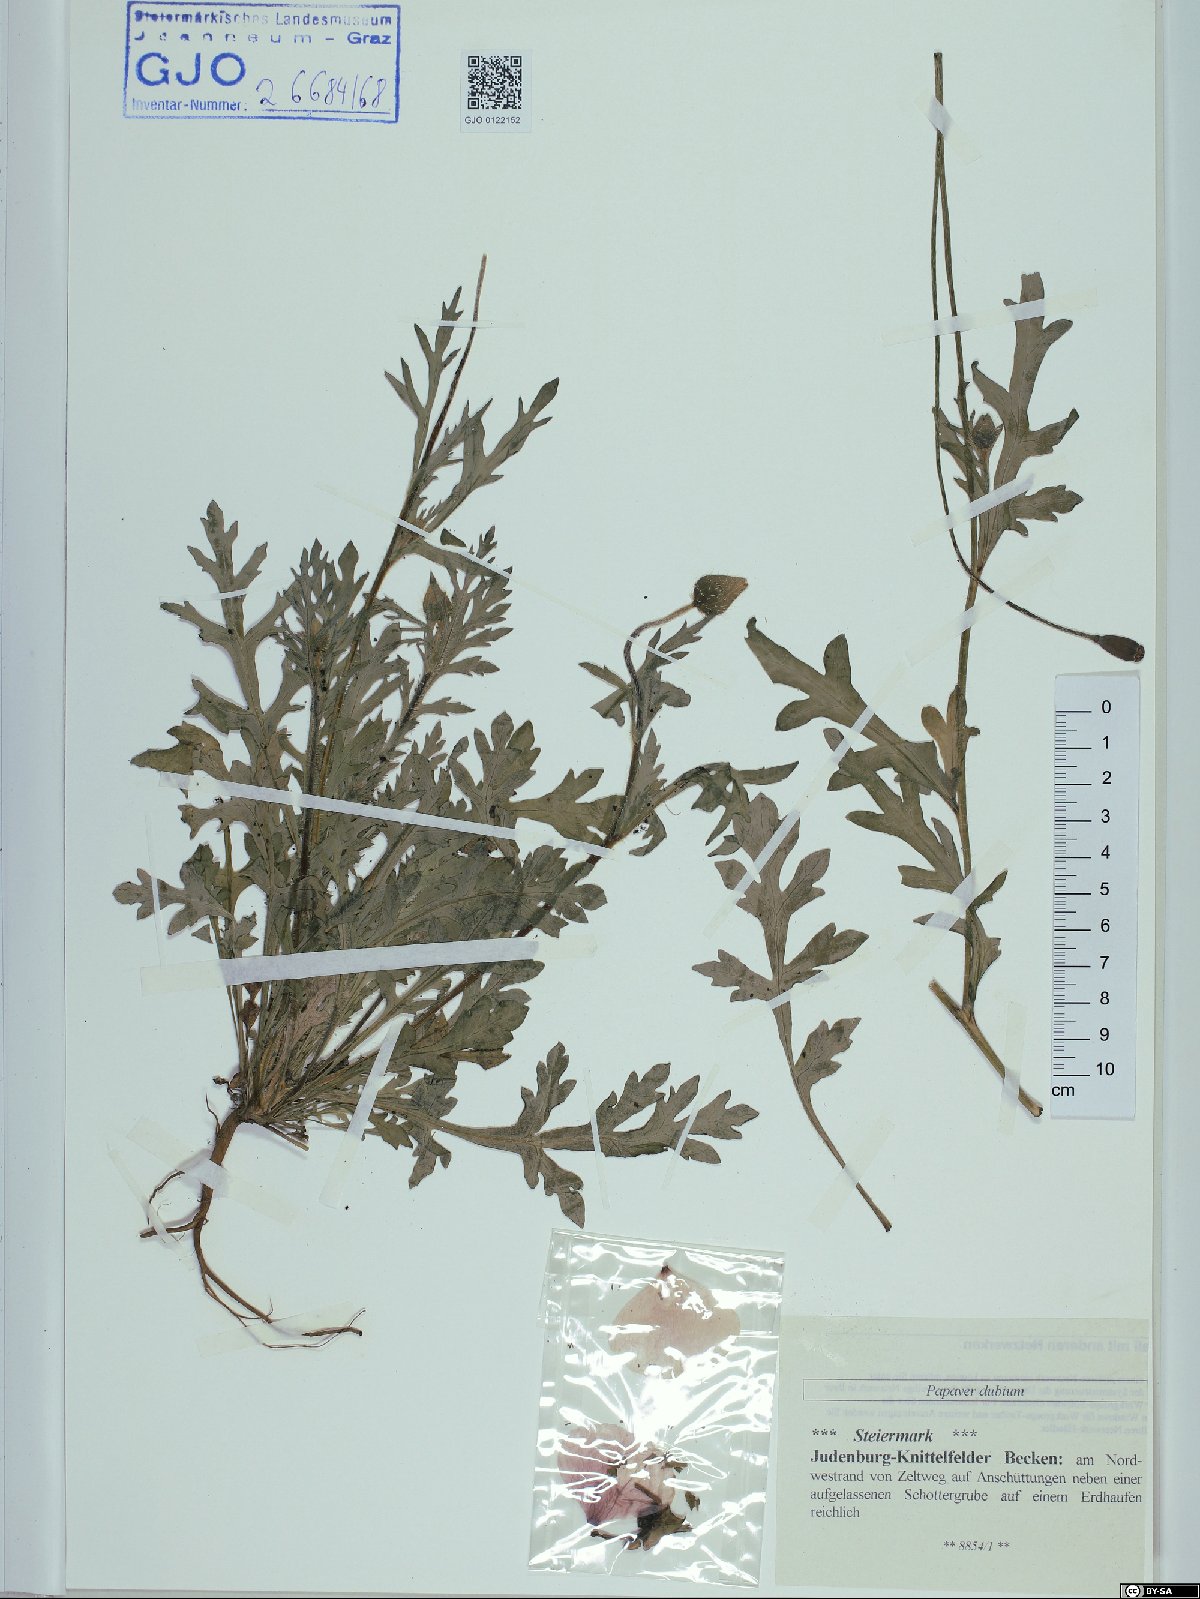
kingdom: Plantae
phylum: Tracheophyta
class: Magnoliopsida
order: Ranunculales
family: Papaveraceae
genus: Papaver
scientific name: Papaver dubium
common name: Long-headed poppy
